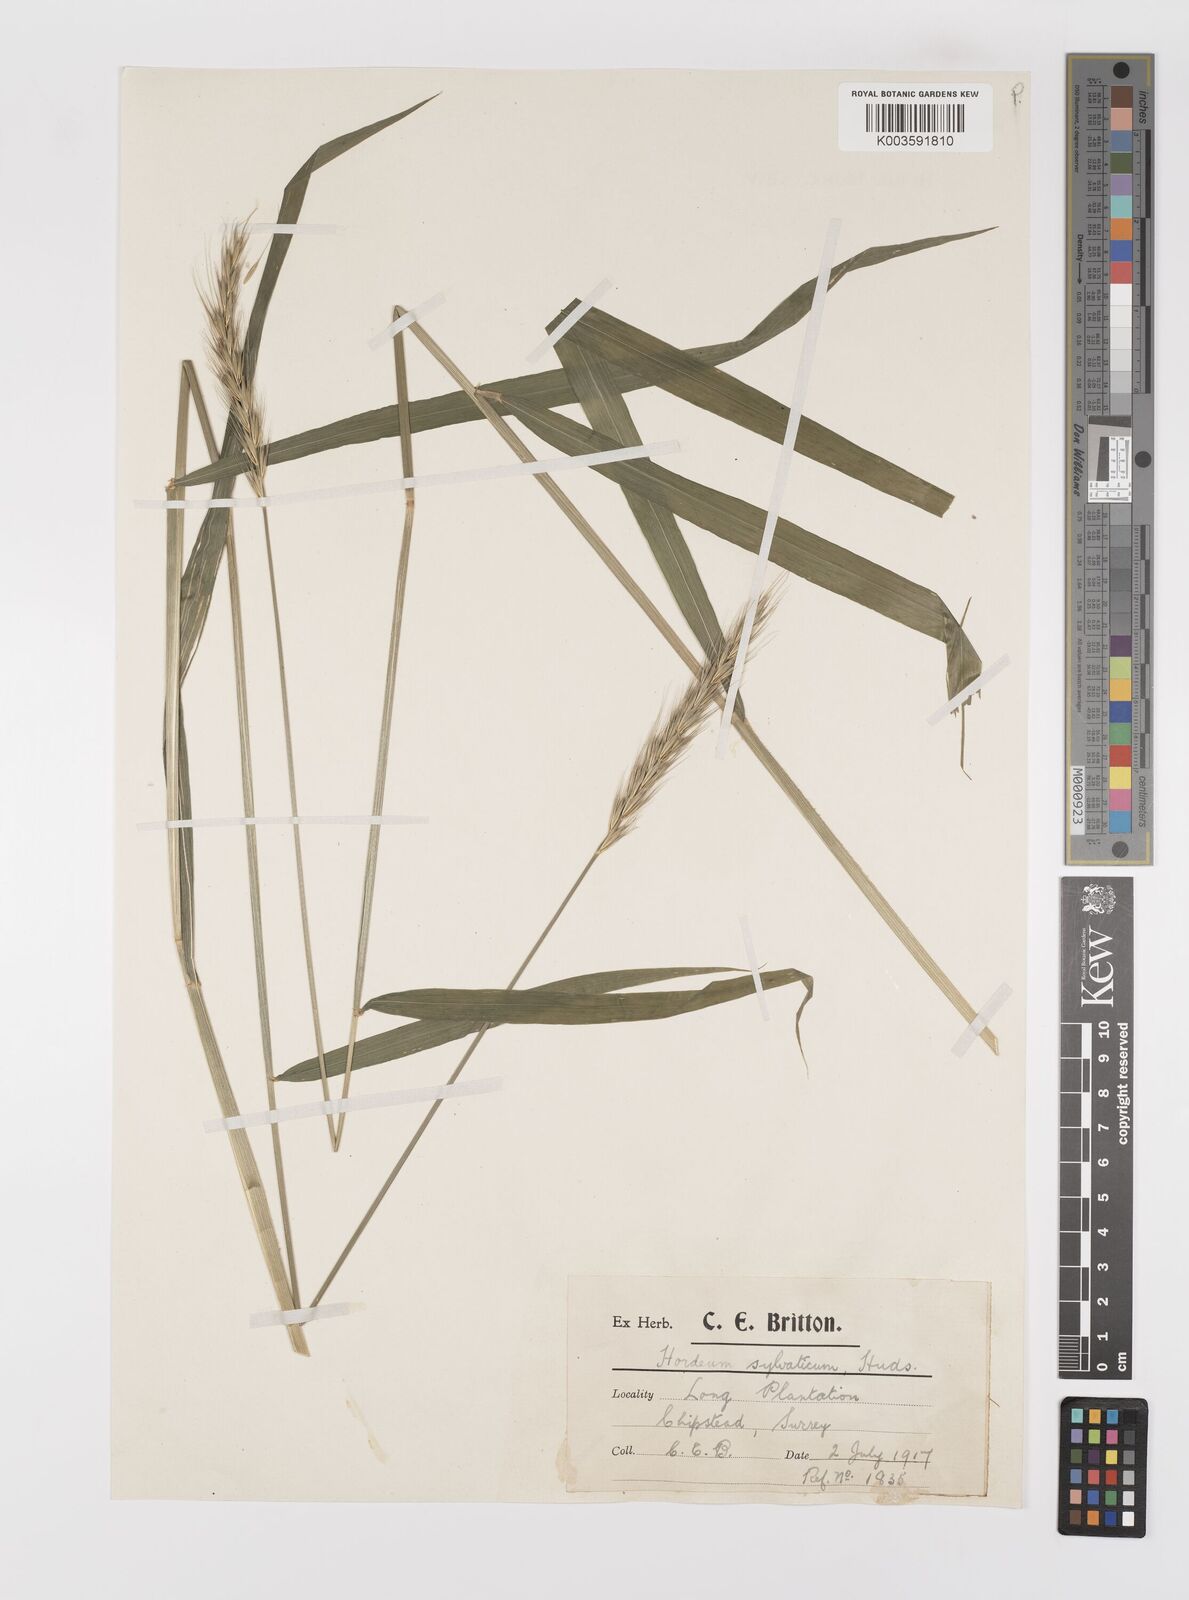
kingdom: Plantae
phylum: Tracheophyta
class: Liliopsida
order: Poales
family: Poaceae
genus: Hordelymus
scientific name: Hordelymus europaeus
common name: Wood-barley
